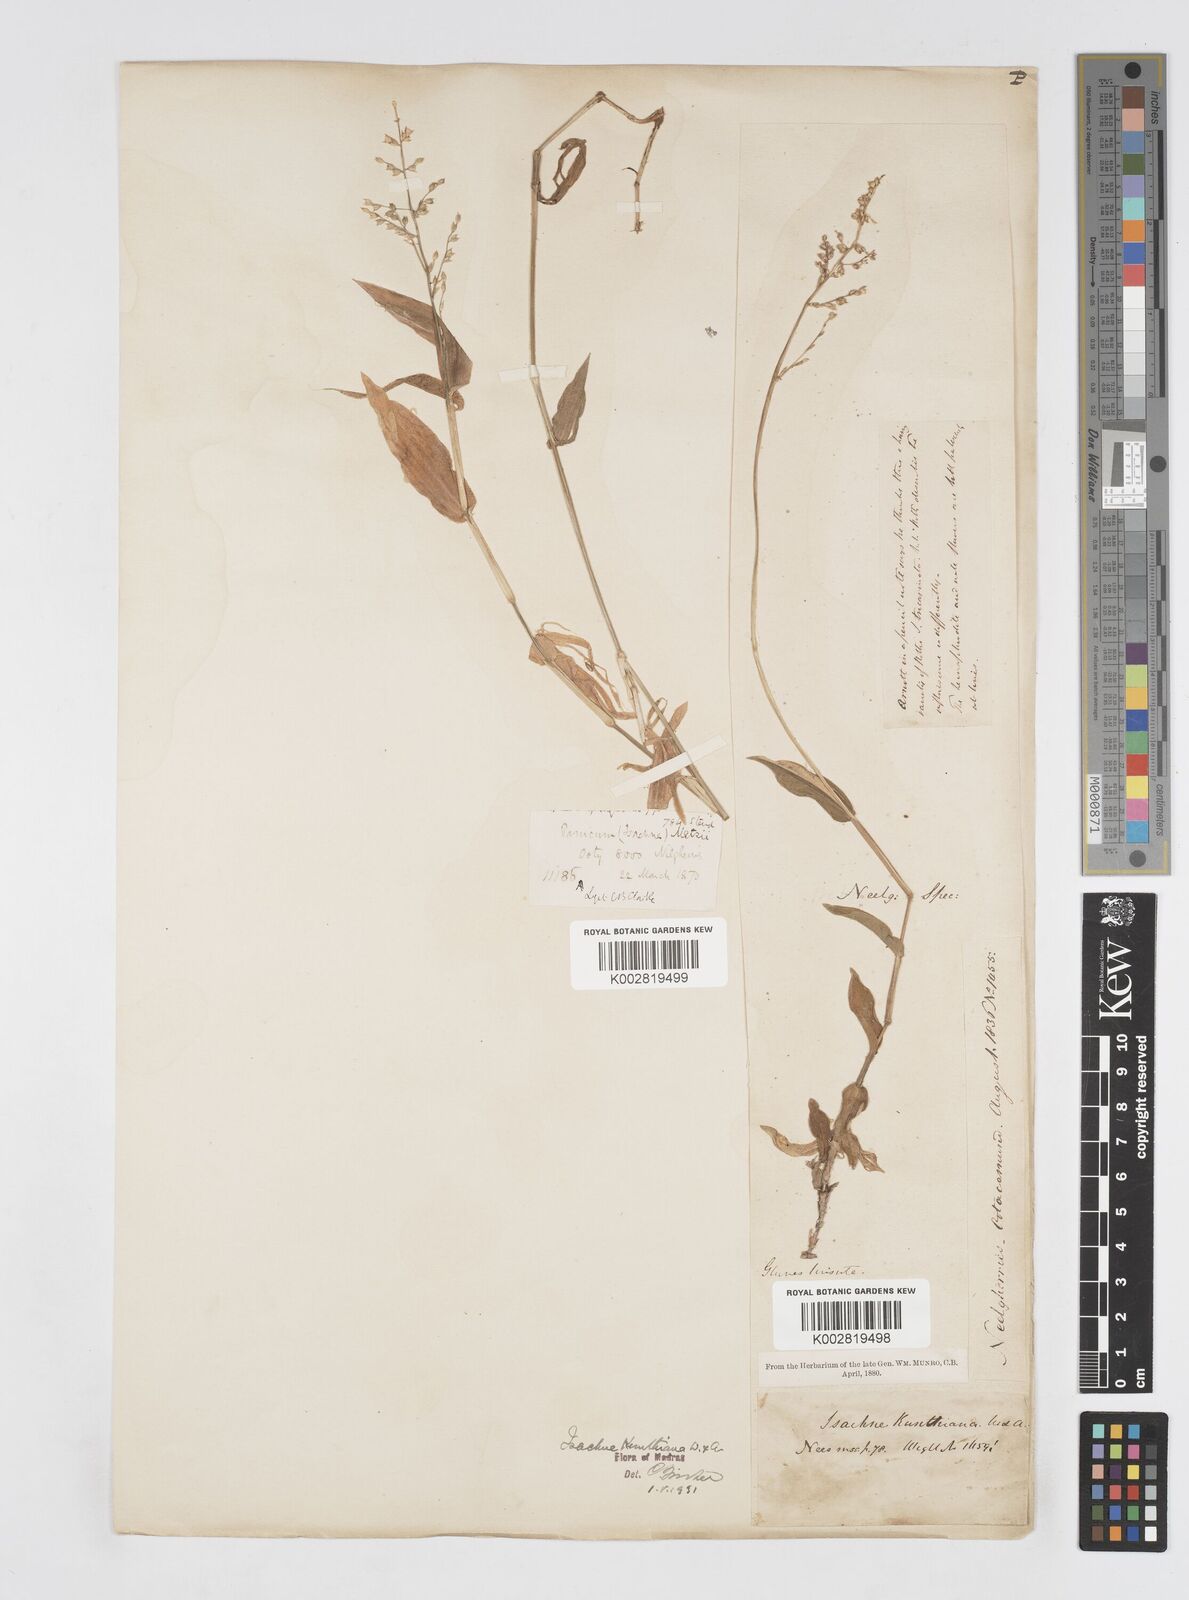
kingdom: Plantae
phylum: Tracheophyta
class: Liliopsida
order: Poales
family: Poaceae
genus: Isachne
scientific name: Isachne kunthiana
